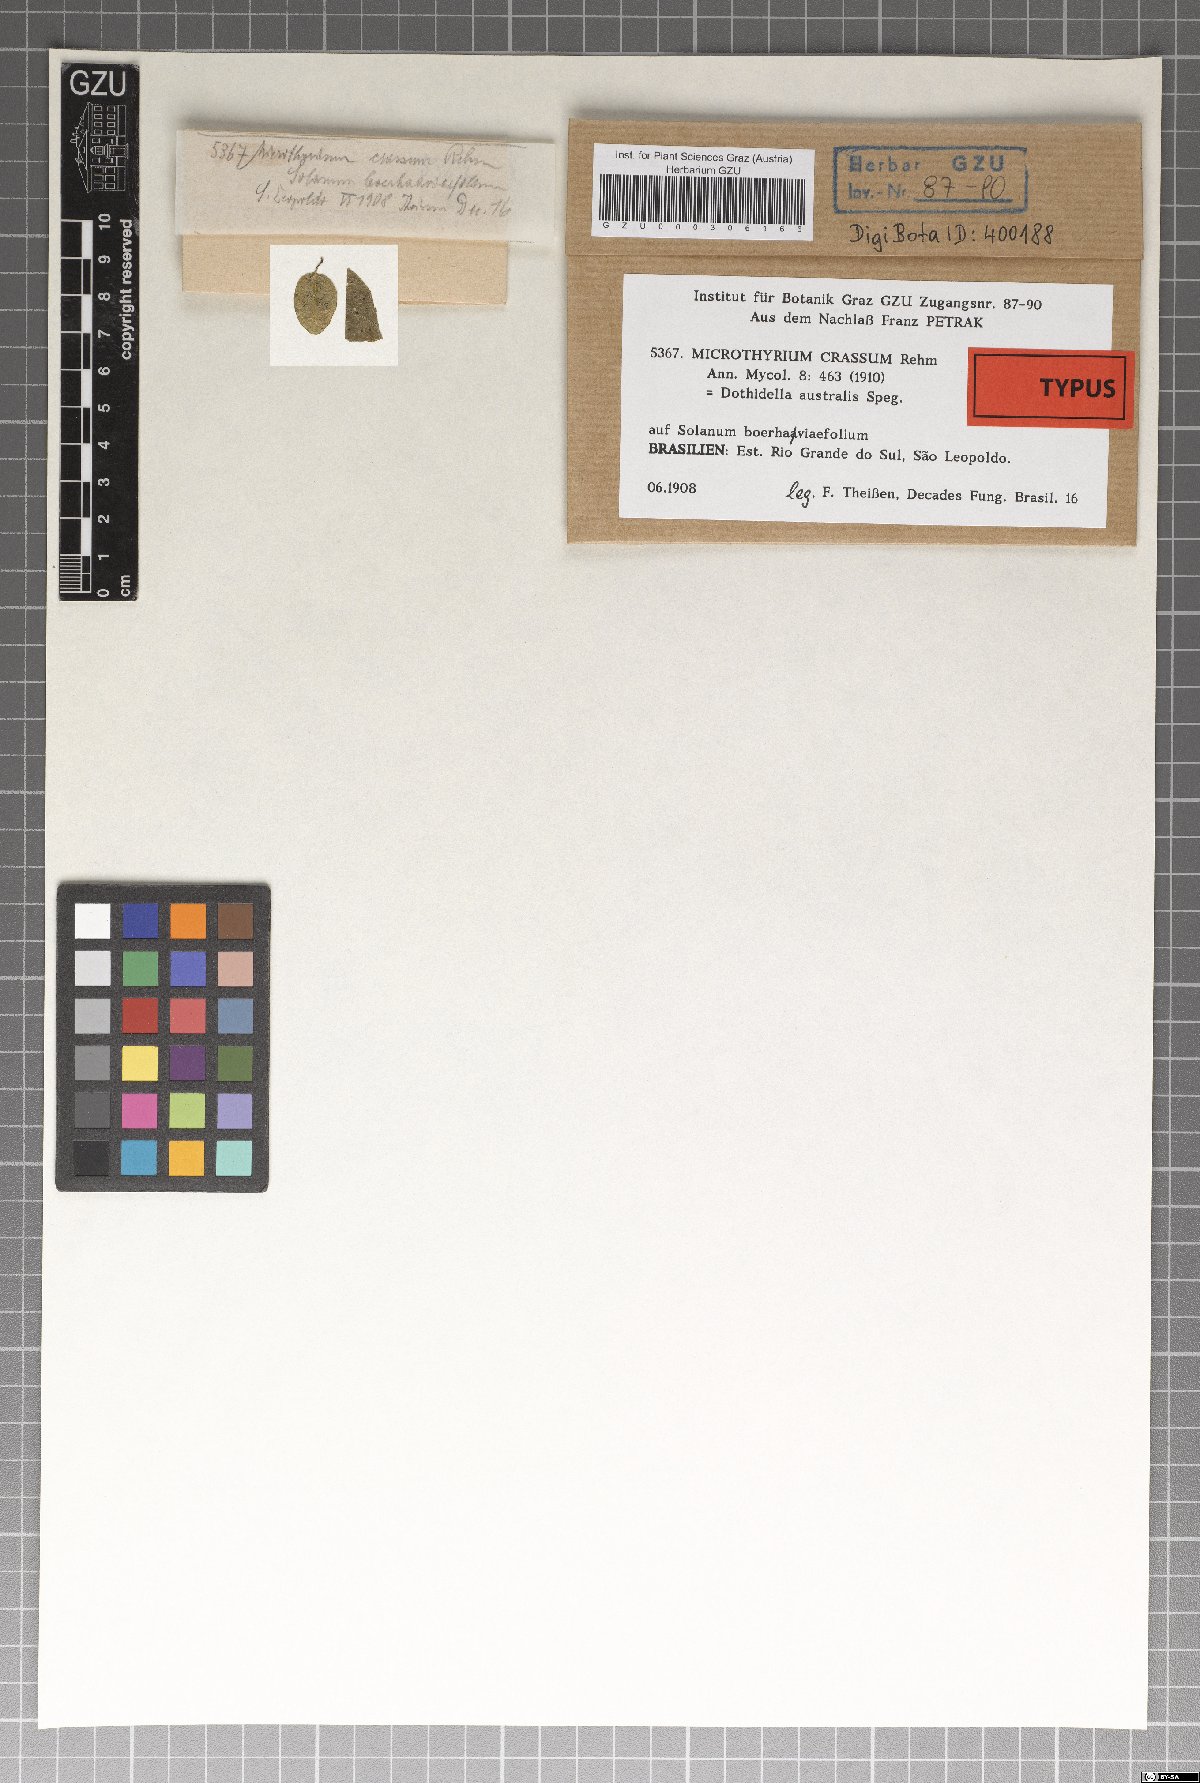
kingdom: Fungi
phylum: Ascomycota
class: Dothideomycetes
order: Microthyriales
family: Microthyriaceae
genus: Microthyrium
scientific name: Microthyrium crassum
